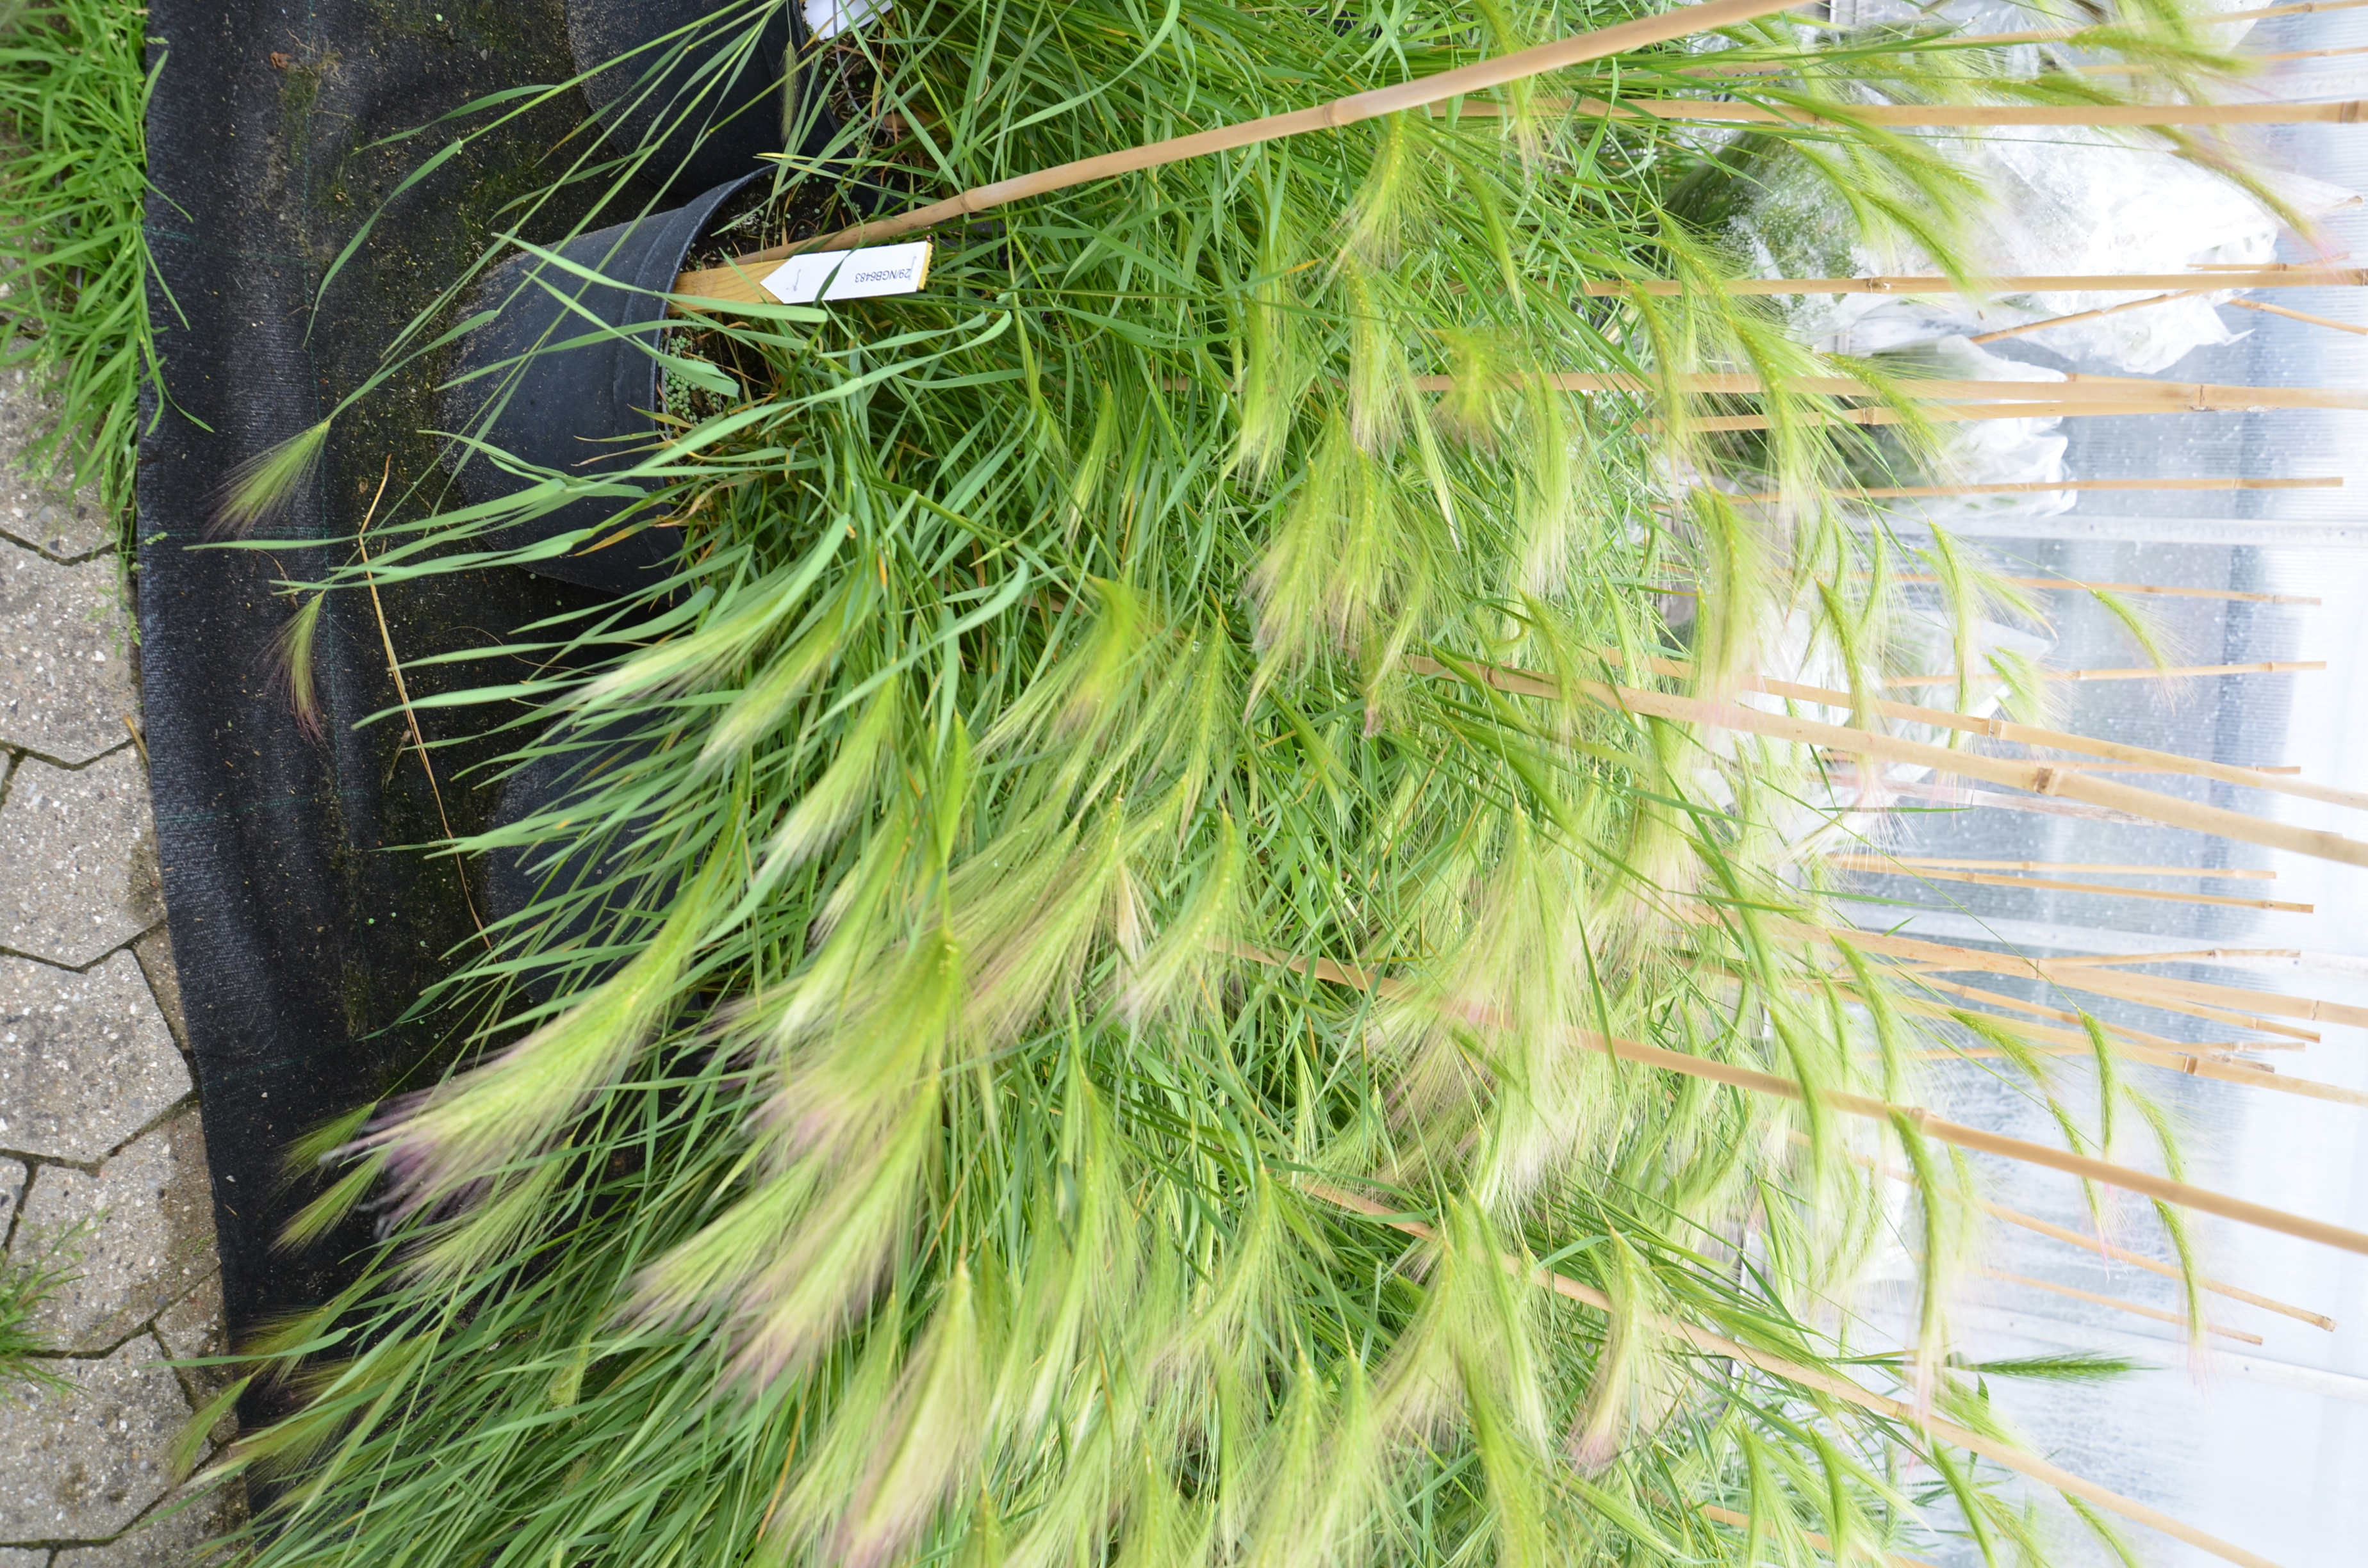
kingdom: Plantae
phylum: Tracheophyta
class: Liliopsida
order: Poales
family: Poaceae
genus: Hordeum
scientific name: Hordeum jubatum
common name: Foxtail barley
